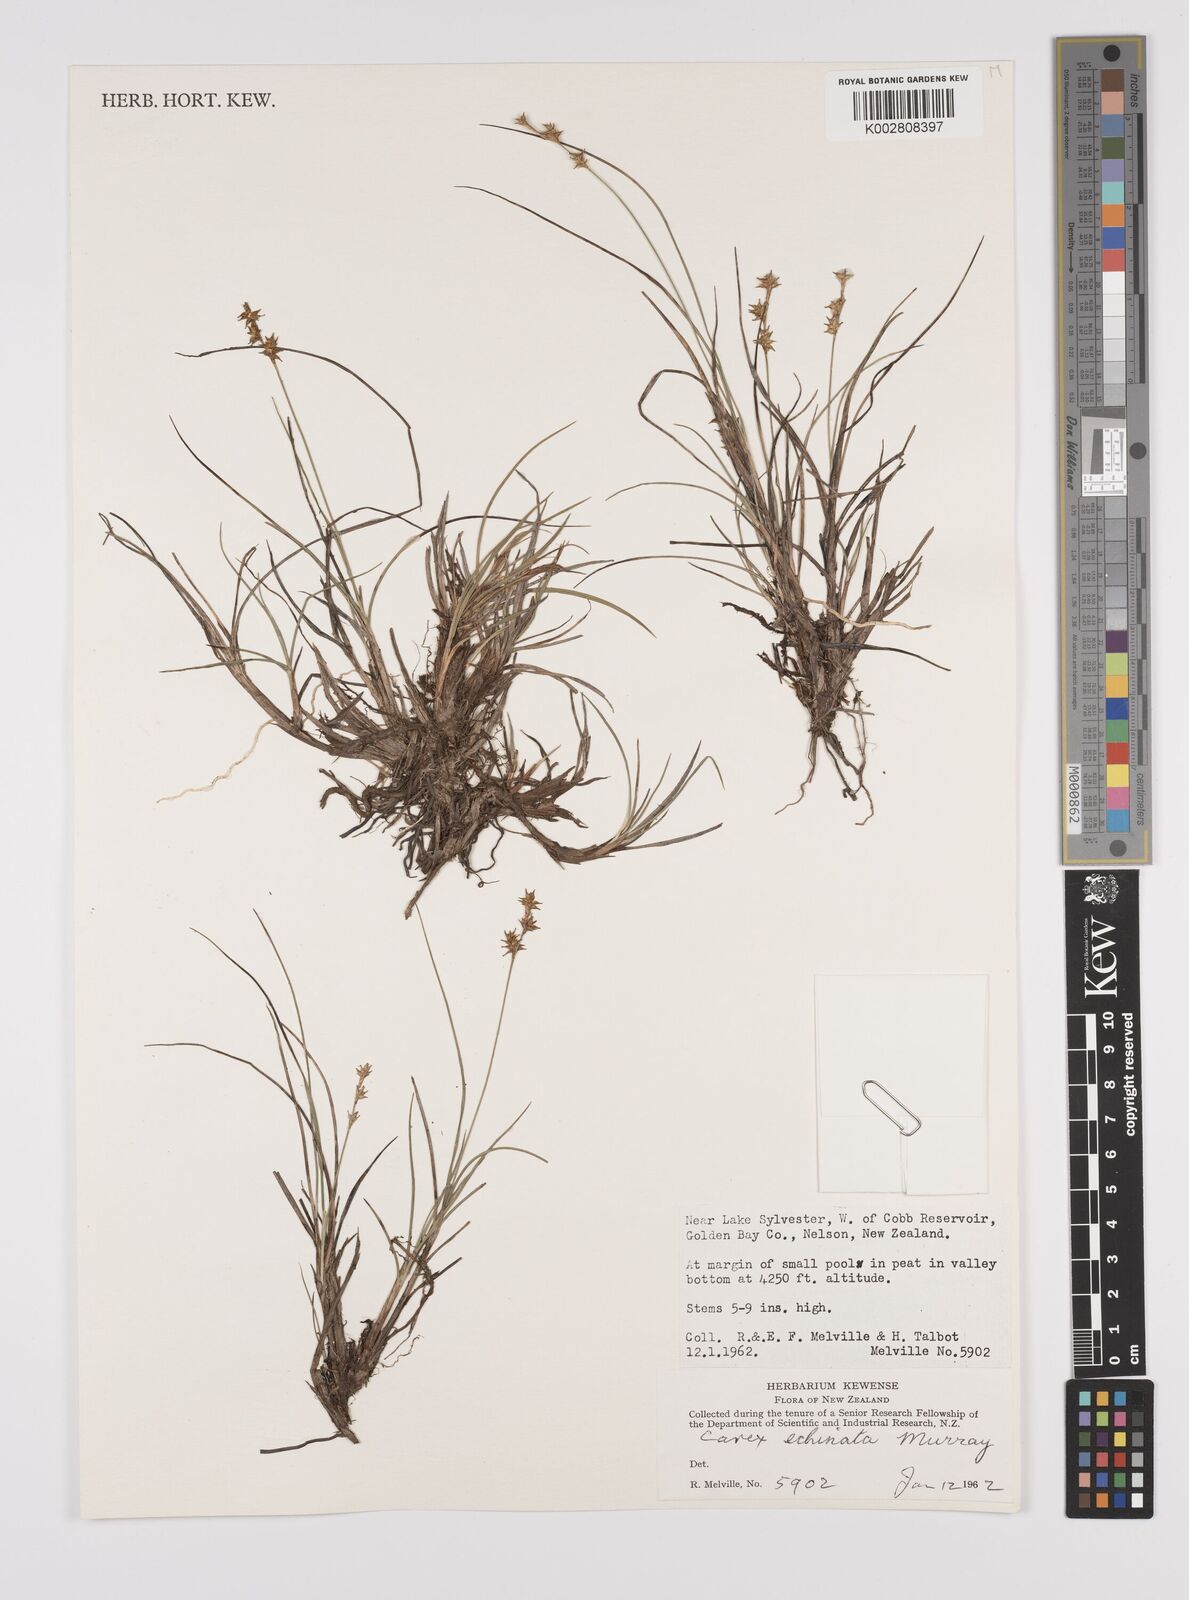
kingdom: Plantae
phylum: Tracheophyta
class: Liliopsida
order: Poales
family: Cyperaceae
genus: Carex
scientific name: Carex echinata
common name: Star sedge
